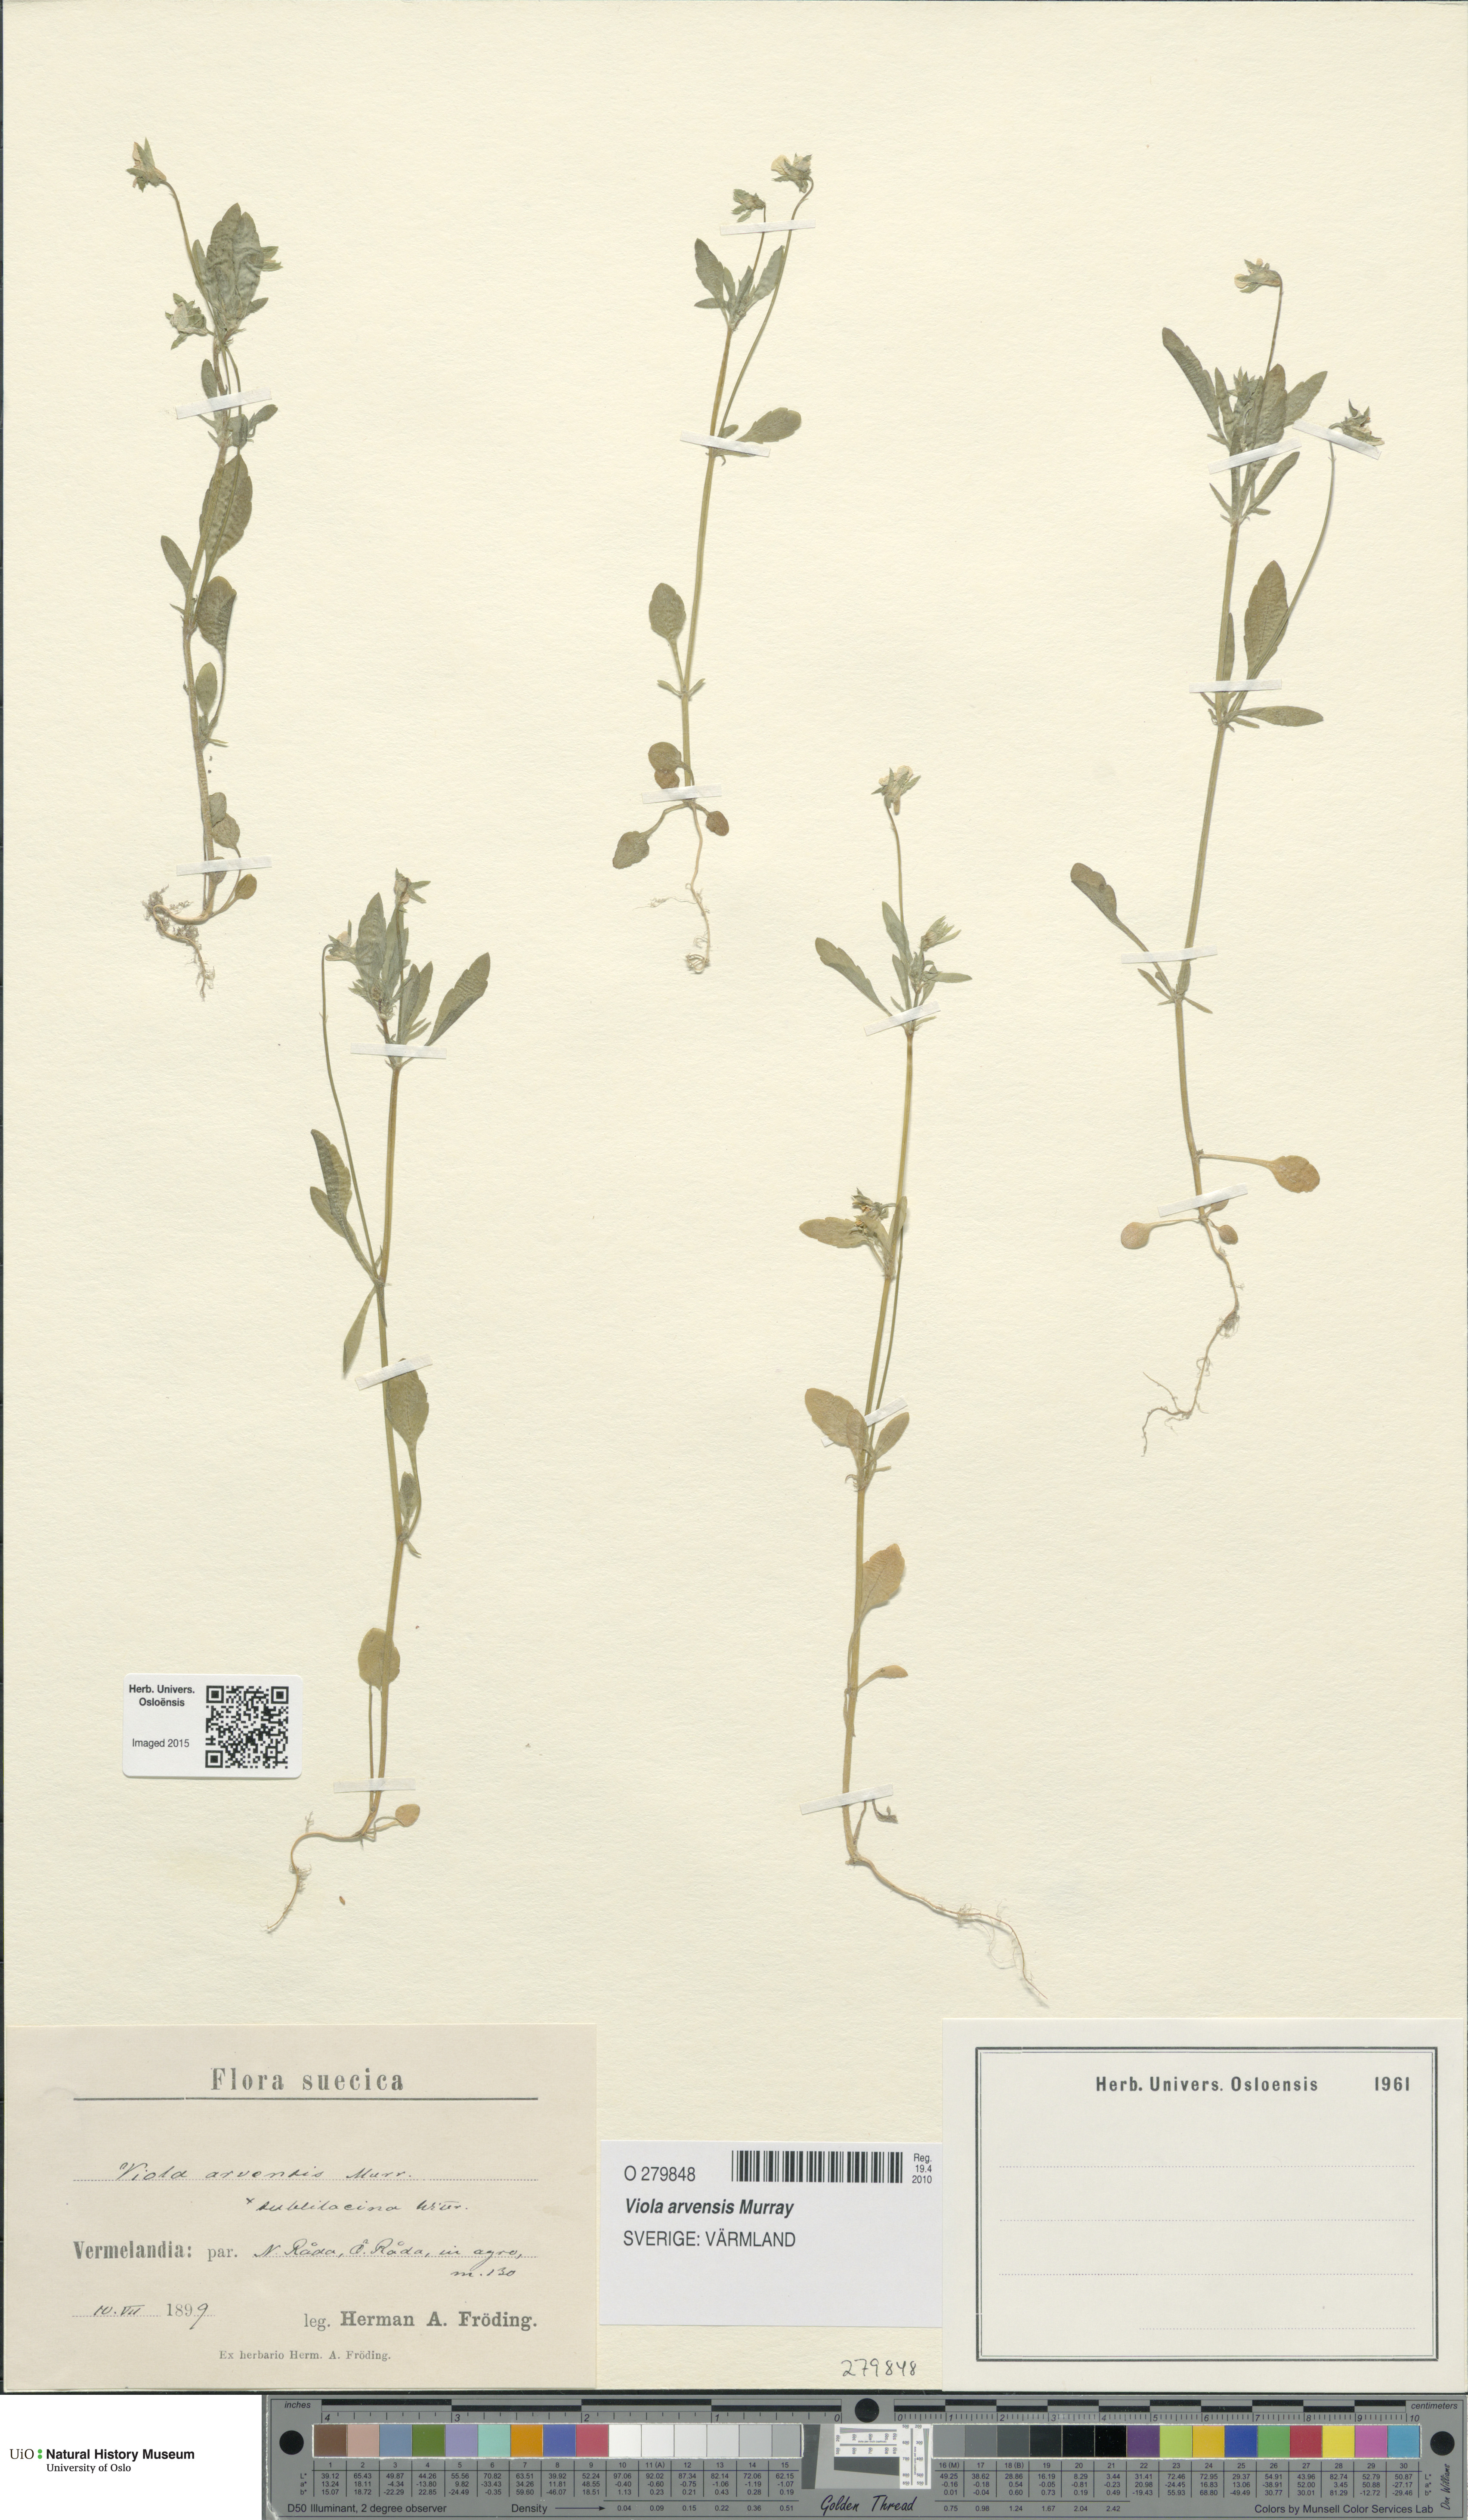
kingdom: Plantae
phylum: Tracheophyta
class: Magnoliopsida
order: Malpighiales
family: Violaceae
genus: Viola
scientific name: Viola arvensis
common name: Field pansy
